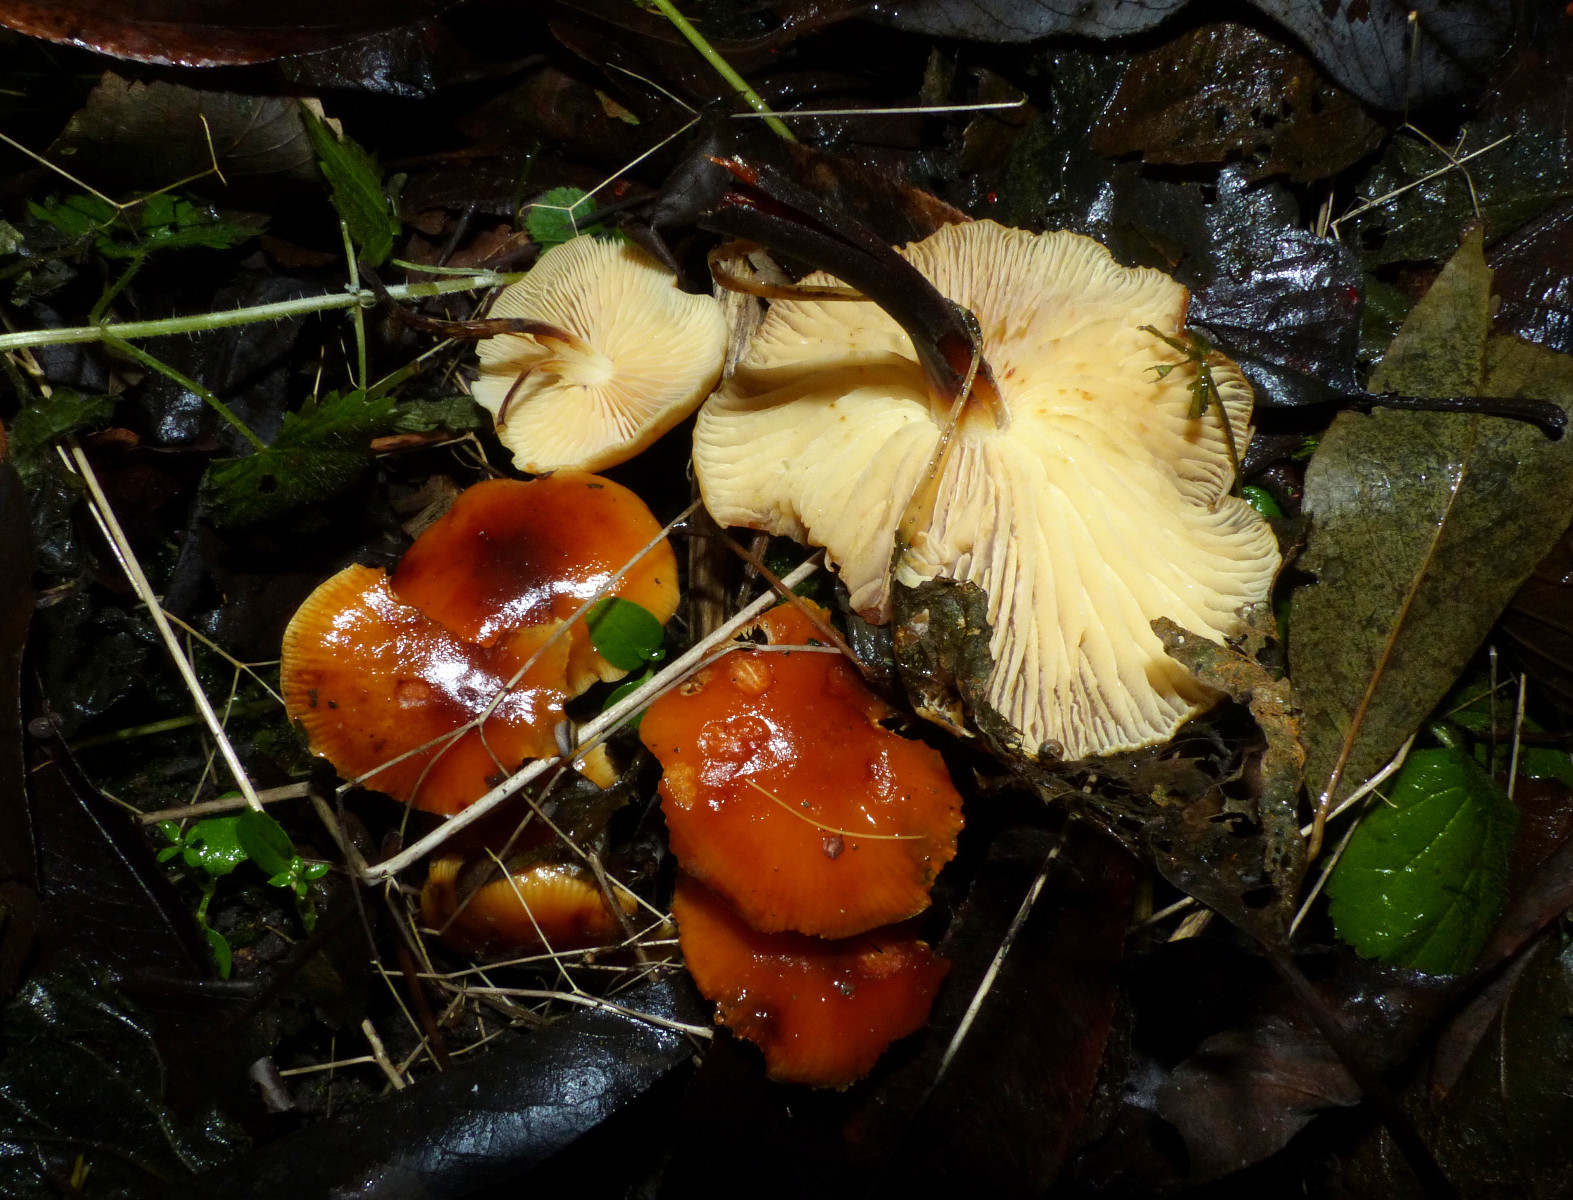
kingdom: Fungi
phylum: Basidiomycota
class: Agaricomycetes
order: Agaricales
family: Physalacriaceae
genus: Flammulina
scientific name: Flammulina elastica
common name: pile-fløjlsfod
